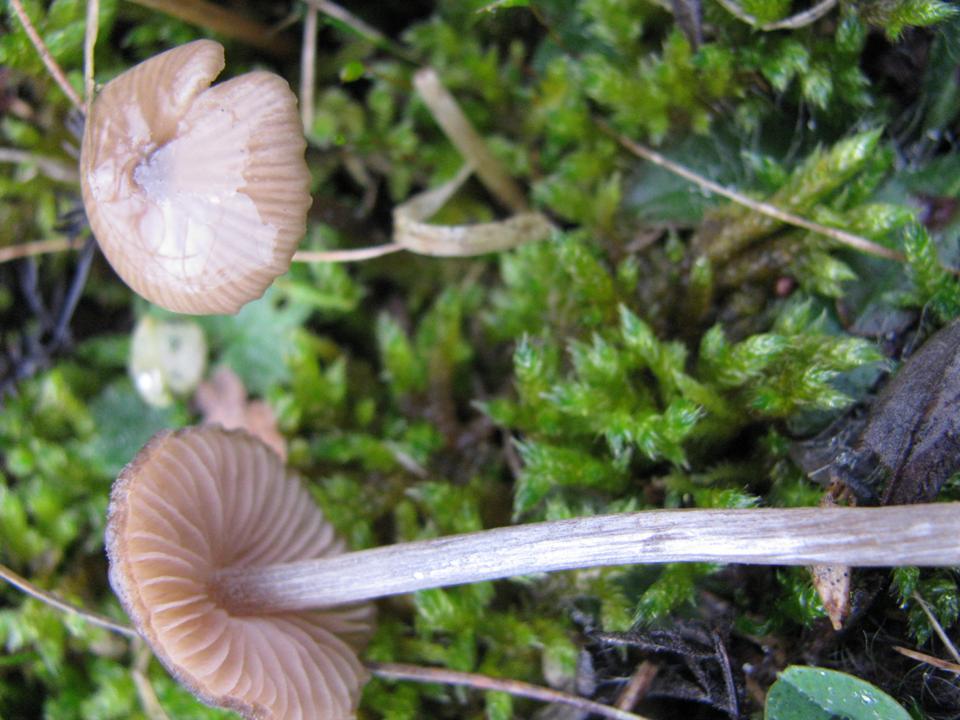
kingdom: Fungi
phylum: Basidiomycota
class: Agaricomycetes
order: Agaricales
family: Entolomataceae
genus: Entoloma
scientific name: Entoloma hebes
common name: krat-rødblad
